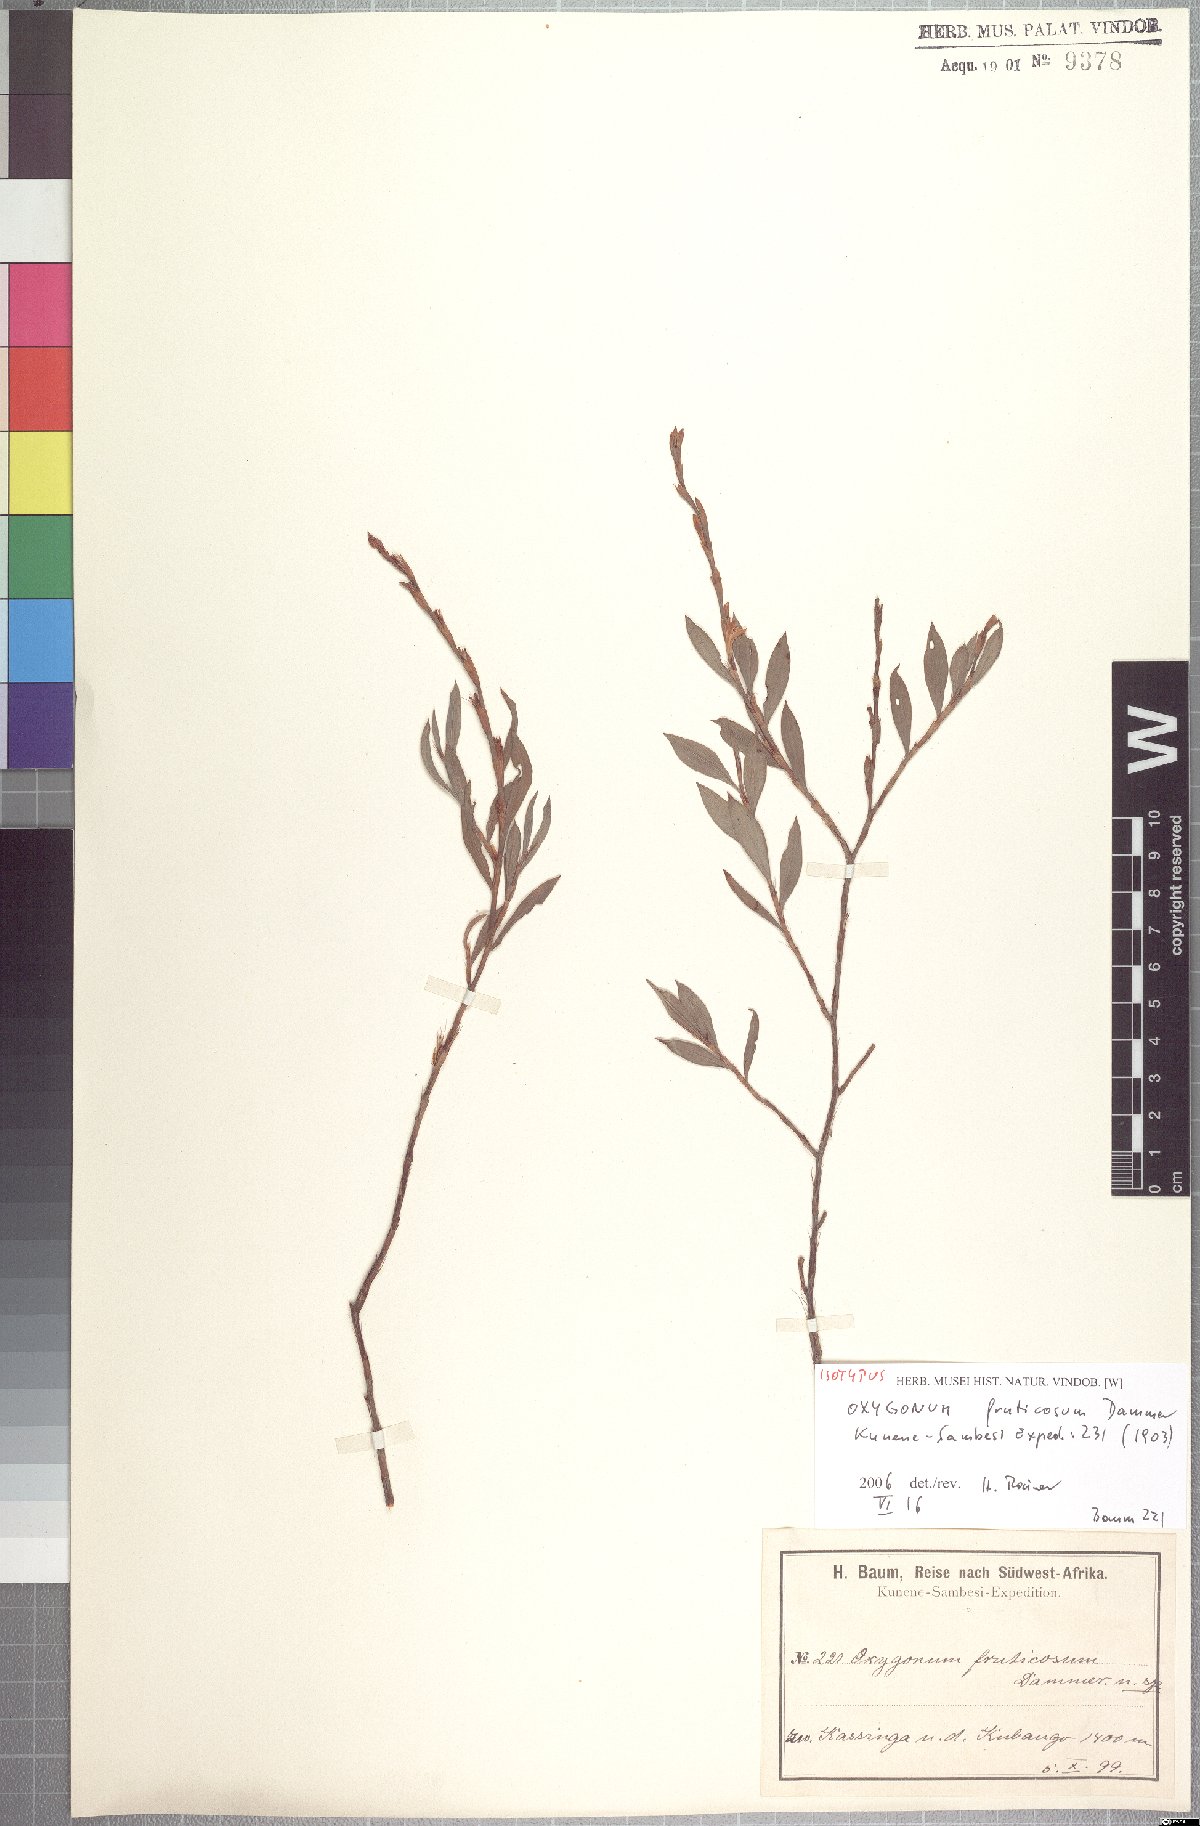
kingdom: Plantae
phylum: Tracheophyta
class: Magnoliopsida
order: Caryophyllales
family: Polygonaceae
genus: Oxygonum
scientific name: Oxygonum fruticosum
